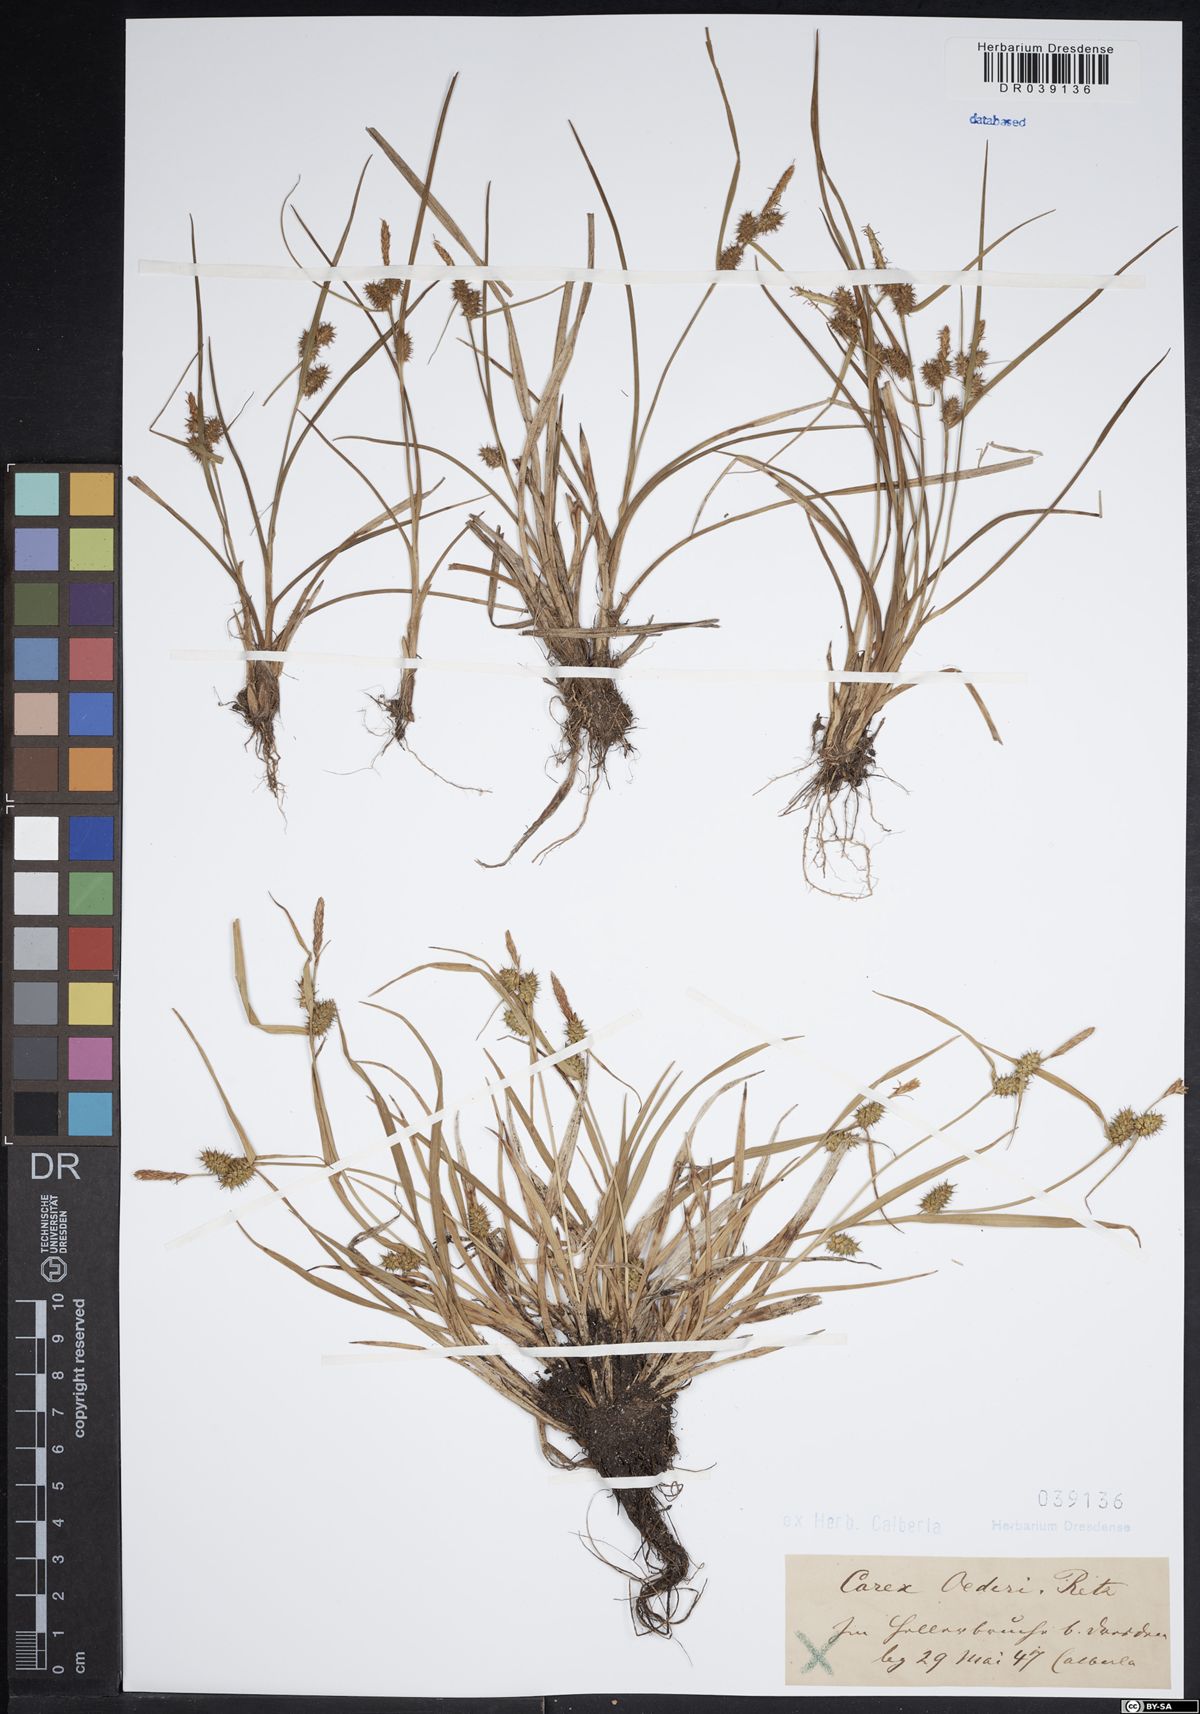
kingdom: Plantae
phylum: Tracheophyta
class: Liliopsida
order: Poales
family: Cyperaceae
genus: Carex
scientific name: Carex oederi
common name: Common & small-fruited yellow-sedge
